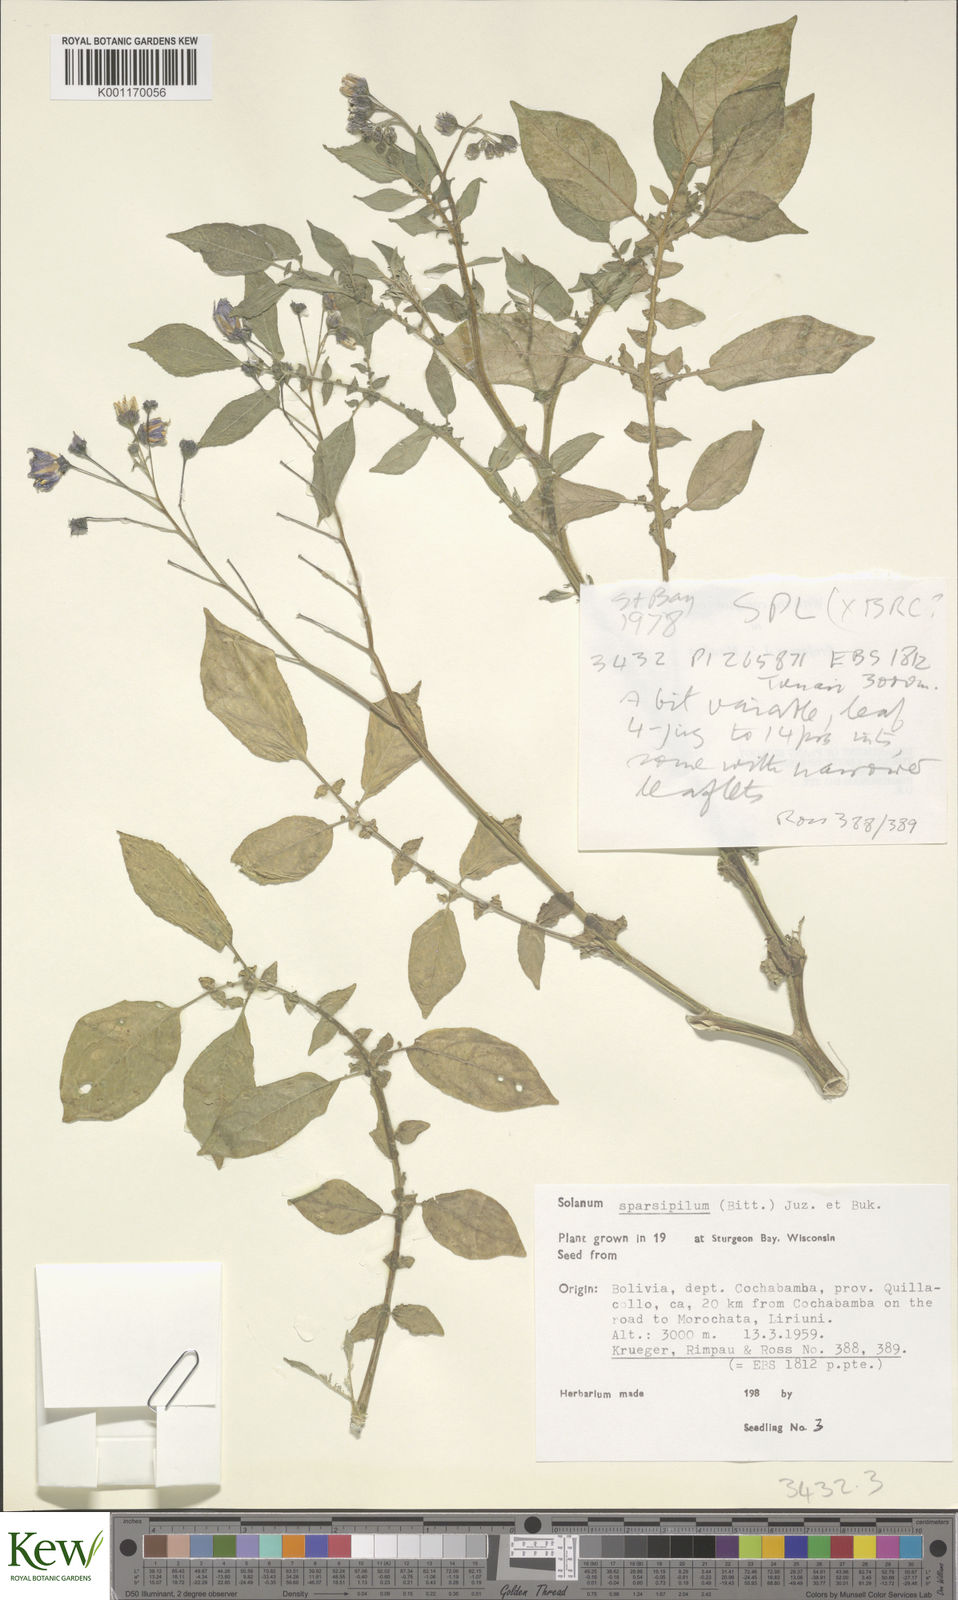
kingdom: Plantae
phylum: Tracheophyta
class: Magnoliopsida
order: Solanales
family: Solanaceae
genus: Solanum
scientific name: Solanum brevicaule
